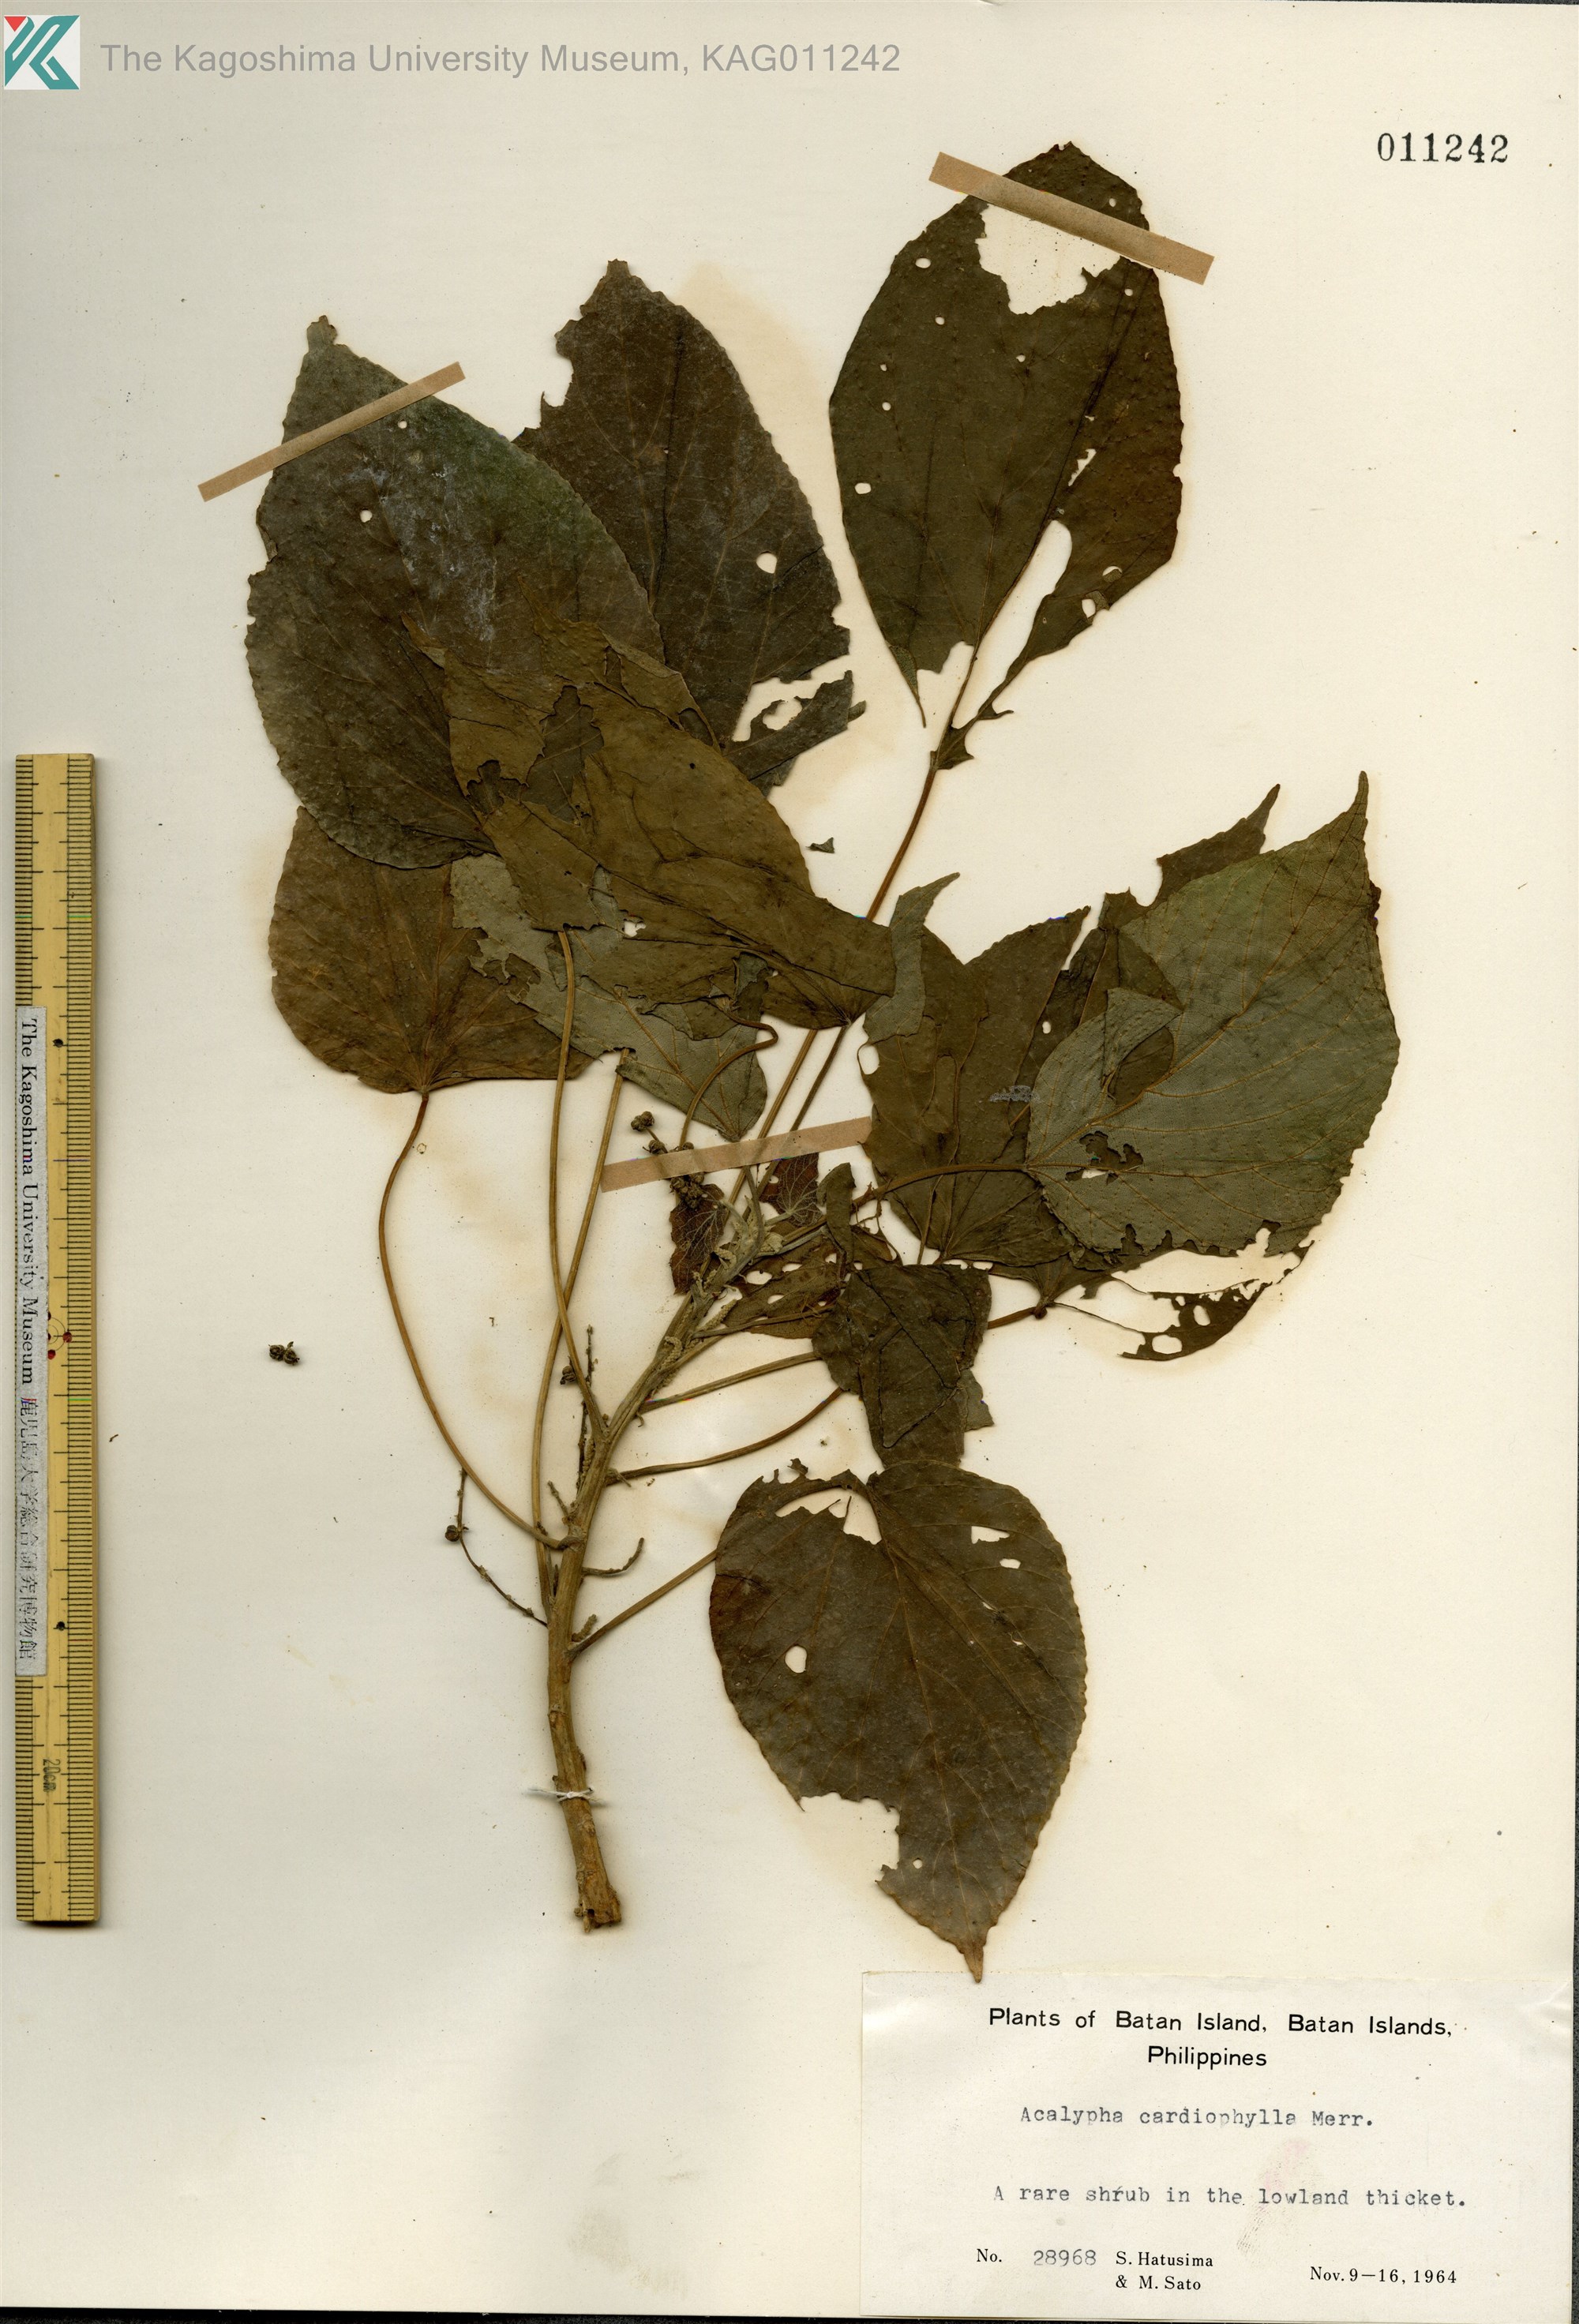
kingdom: Plantae
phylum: Tracheophyta
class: Magnoliopsida
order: Malpighiales
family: Euphorbiaceae
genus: Acalypha
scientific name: Acalypha cardiophylla
